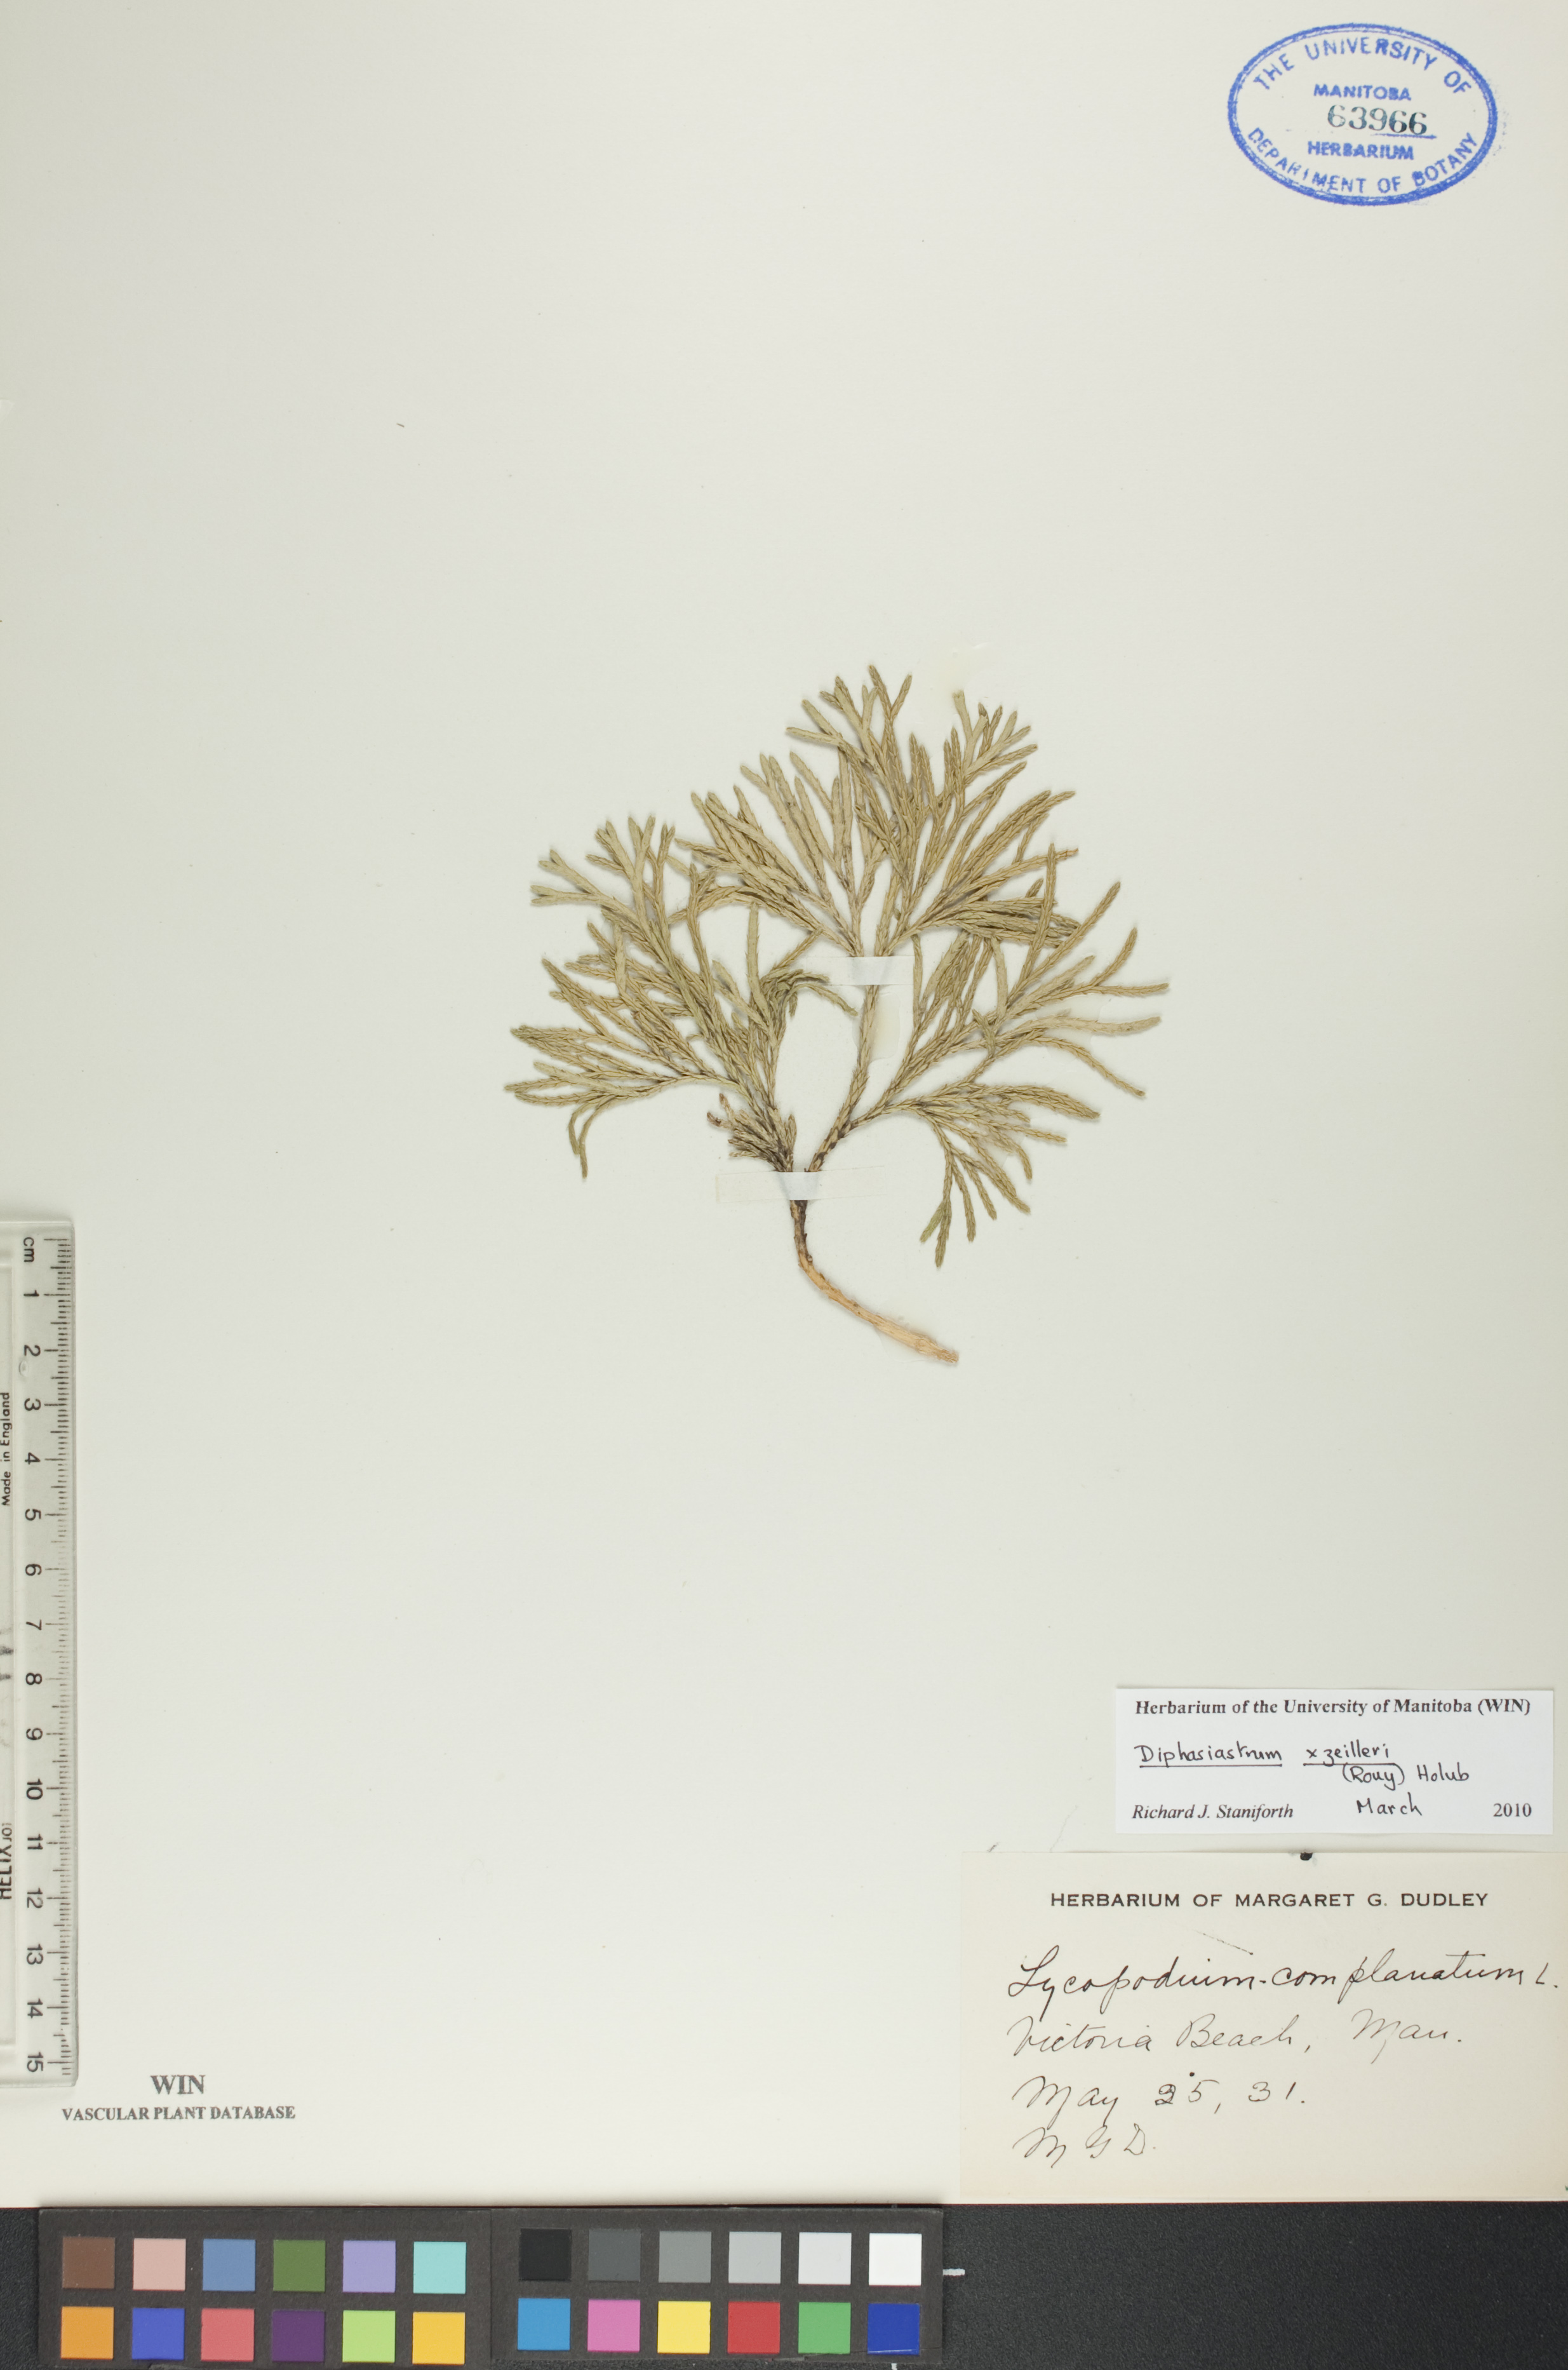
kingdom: Plantae
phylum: Tracheophyta
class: Lycopodiopsida
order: Lycopodiales
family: Lycopodiaceae
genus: Diphasiastrum
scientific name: Diphasiastrum zeilleri
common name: Zeiller's clubmoss
